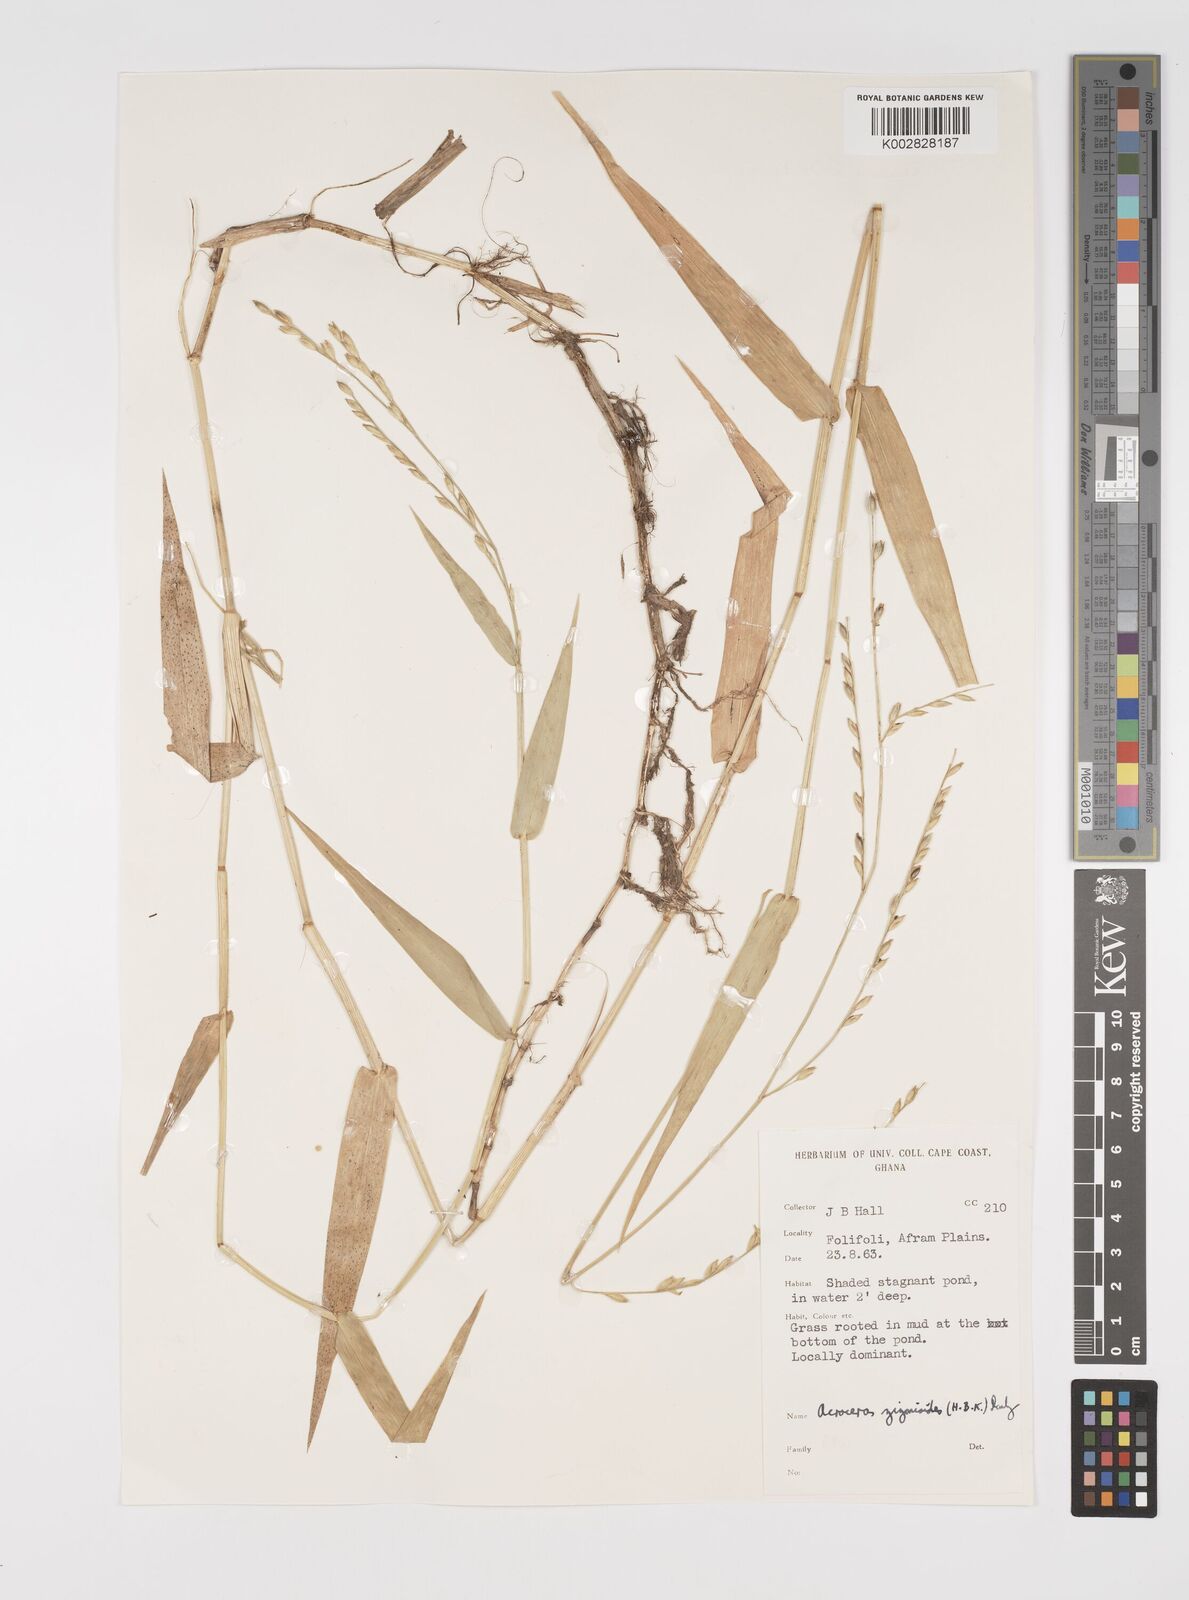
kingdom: Plantae
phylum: Tracheophyta
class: Liliopsida
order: Poales
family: Poaceae
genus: Acroceras
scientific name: Acroceras zizanioides
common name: Oat grass
